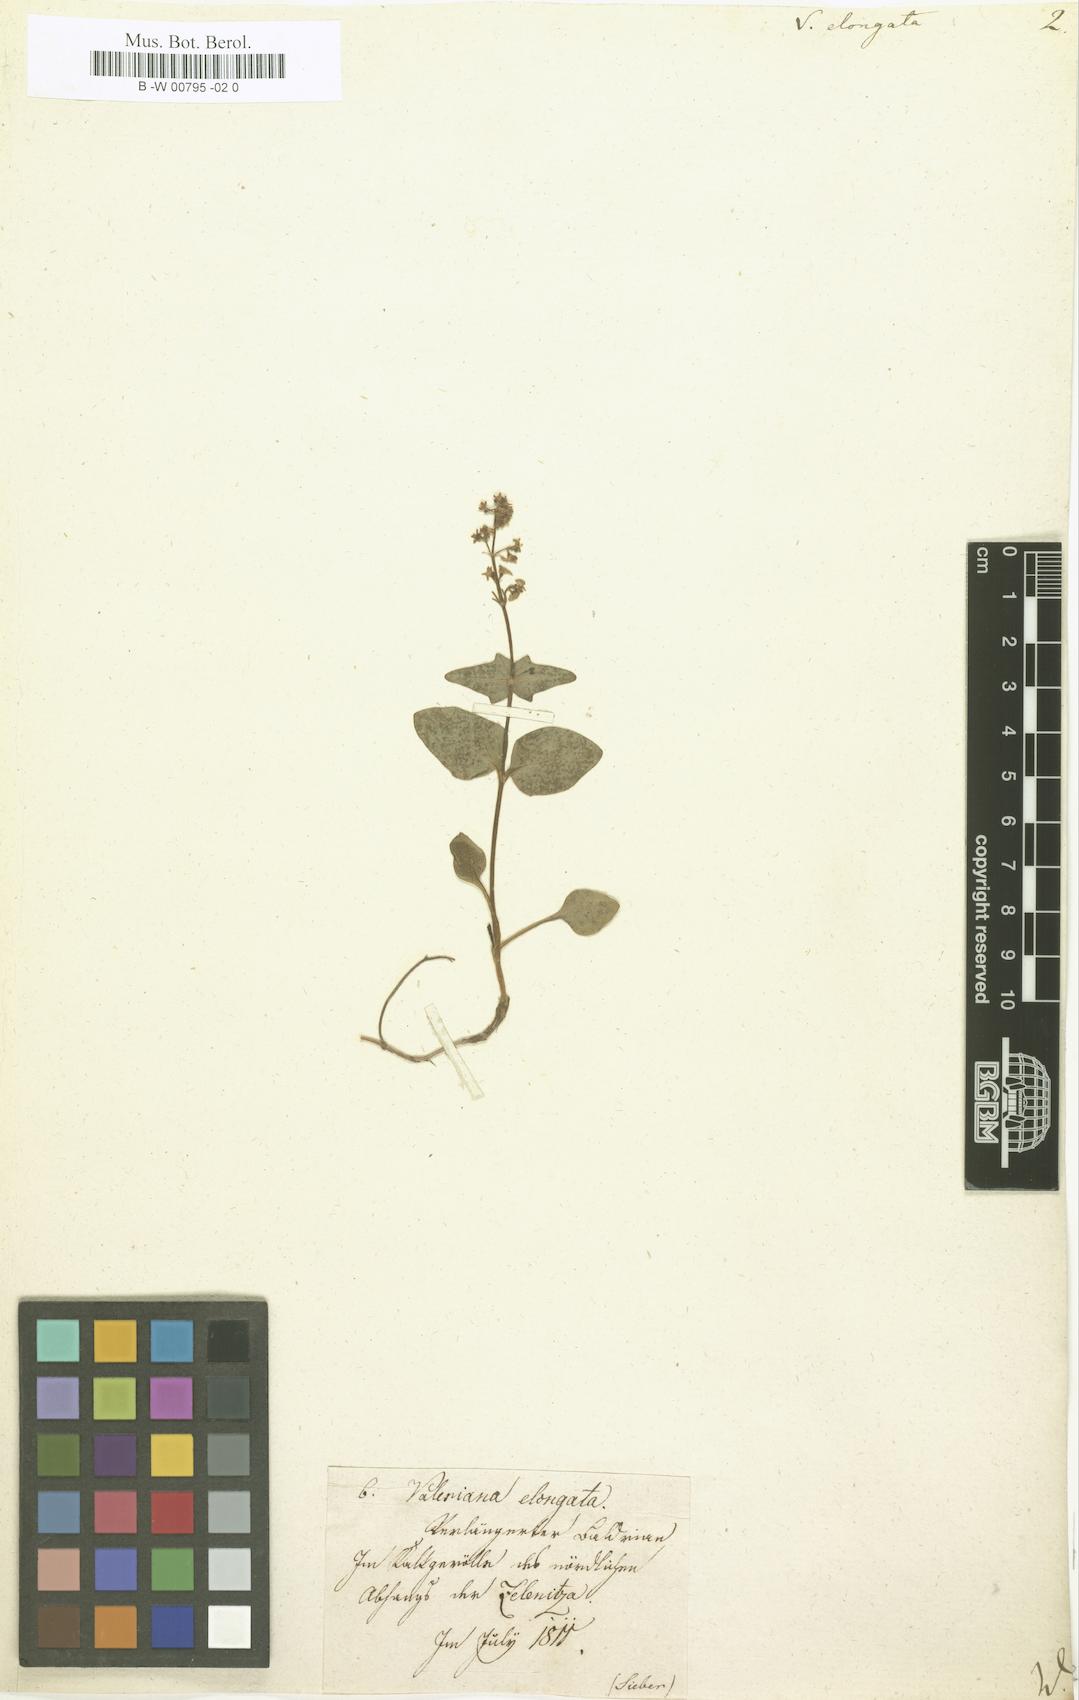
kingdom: Plantae
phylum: Tracheophyta
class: Magnoliopsida
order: Dipsacales
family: Caprifoliaceae
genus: Valeriana
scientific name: Valeriana elongata
